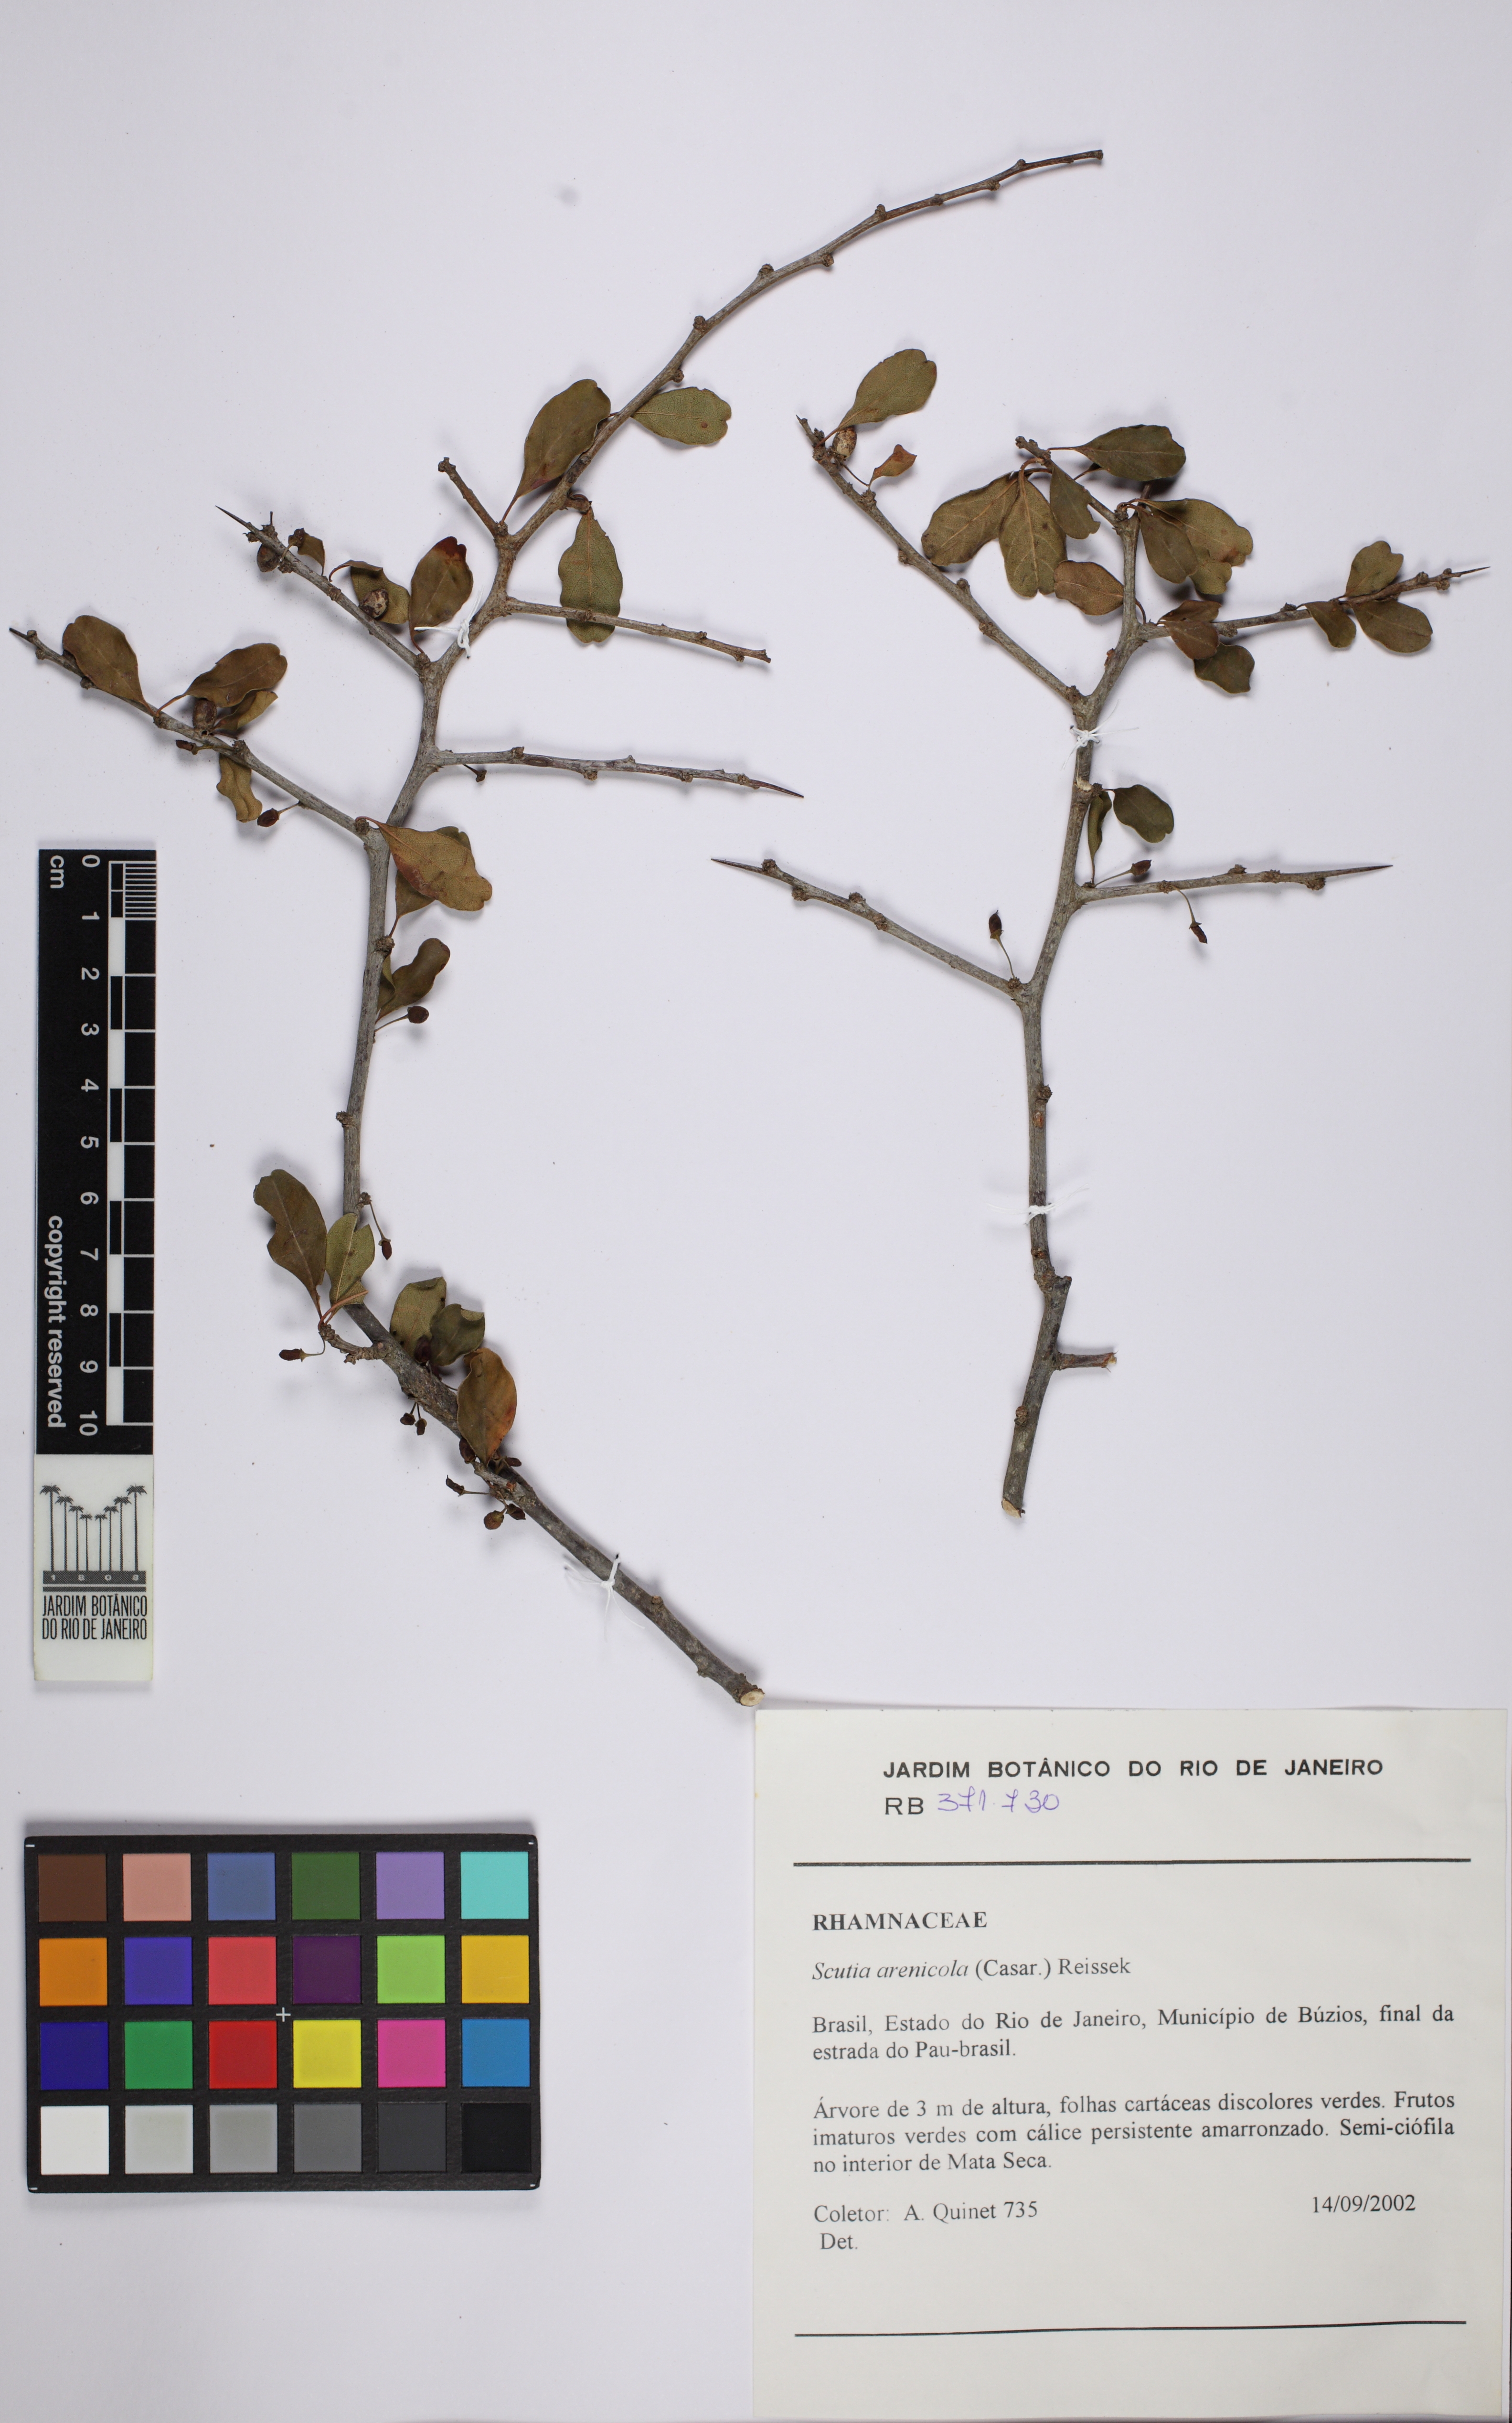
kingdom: Plantae
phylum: Tracheophyta
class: Magnoliopsida
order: Rosales
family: Rhamnaceae
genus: Scutia
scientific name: Scutia arenicola
